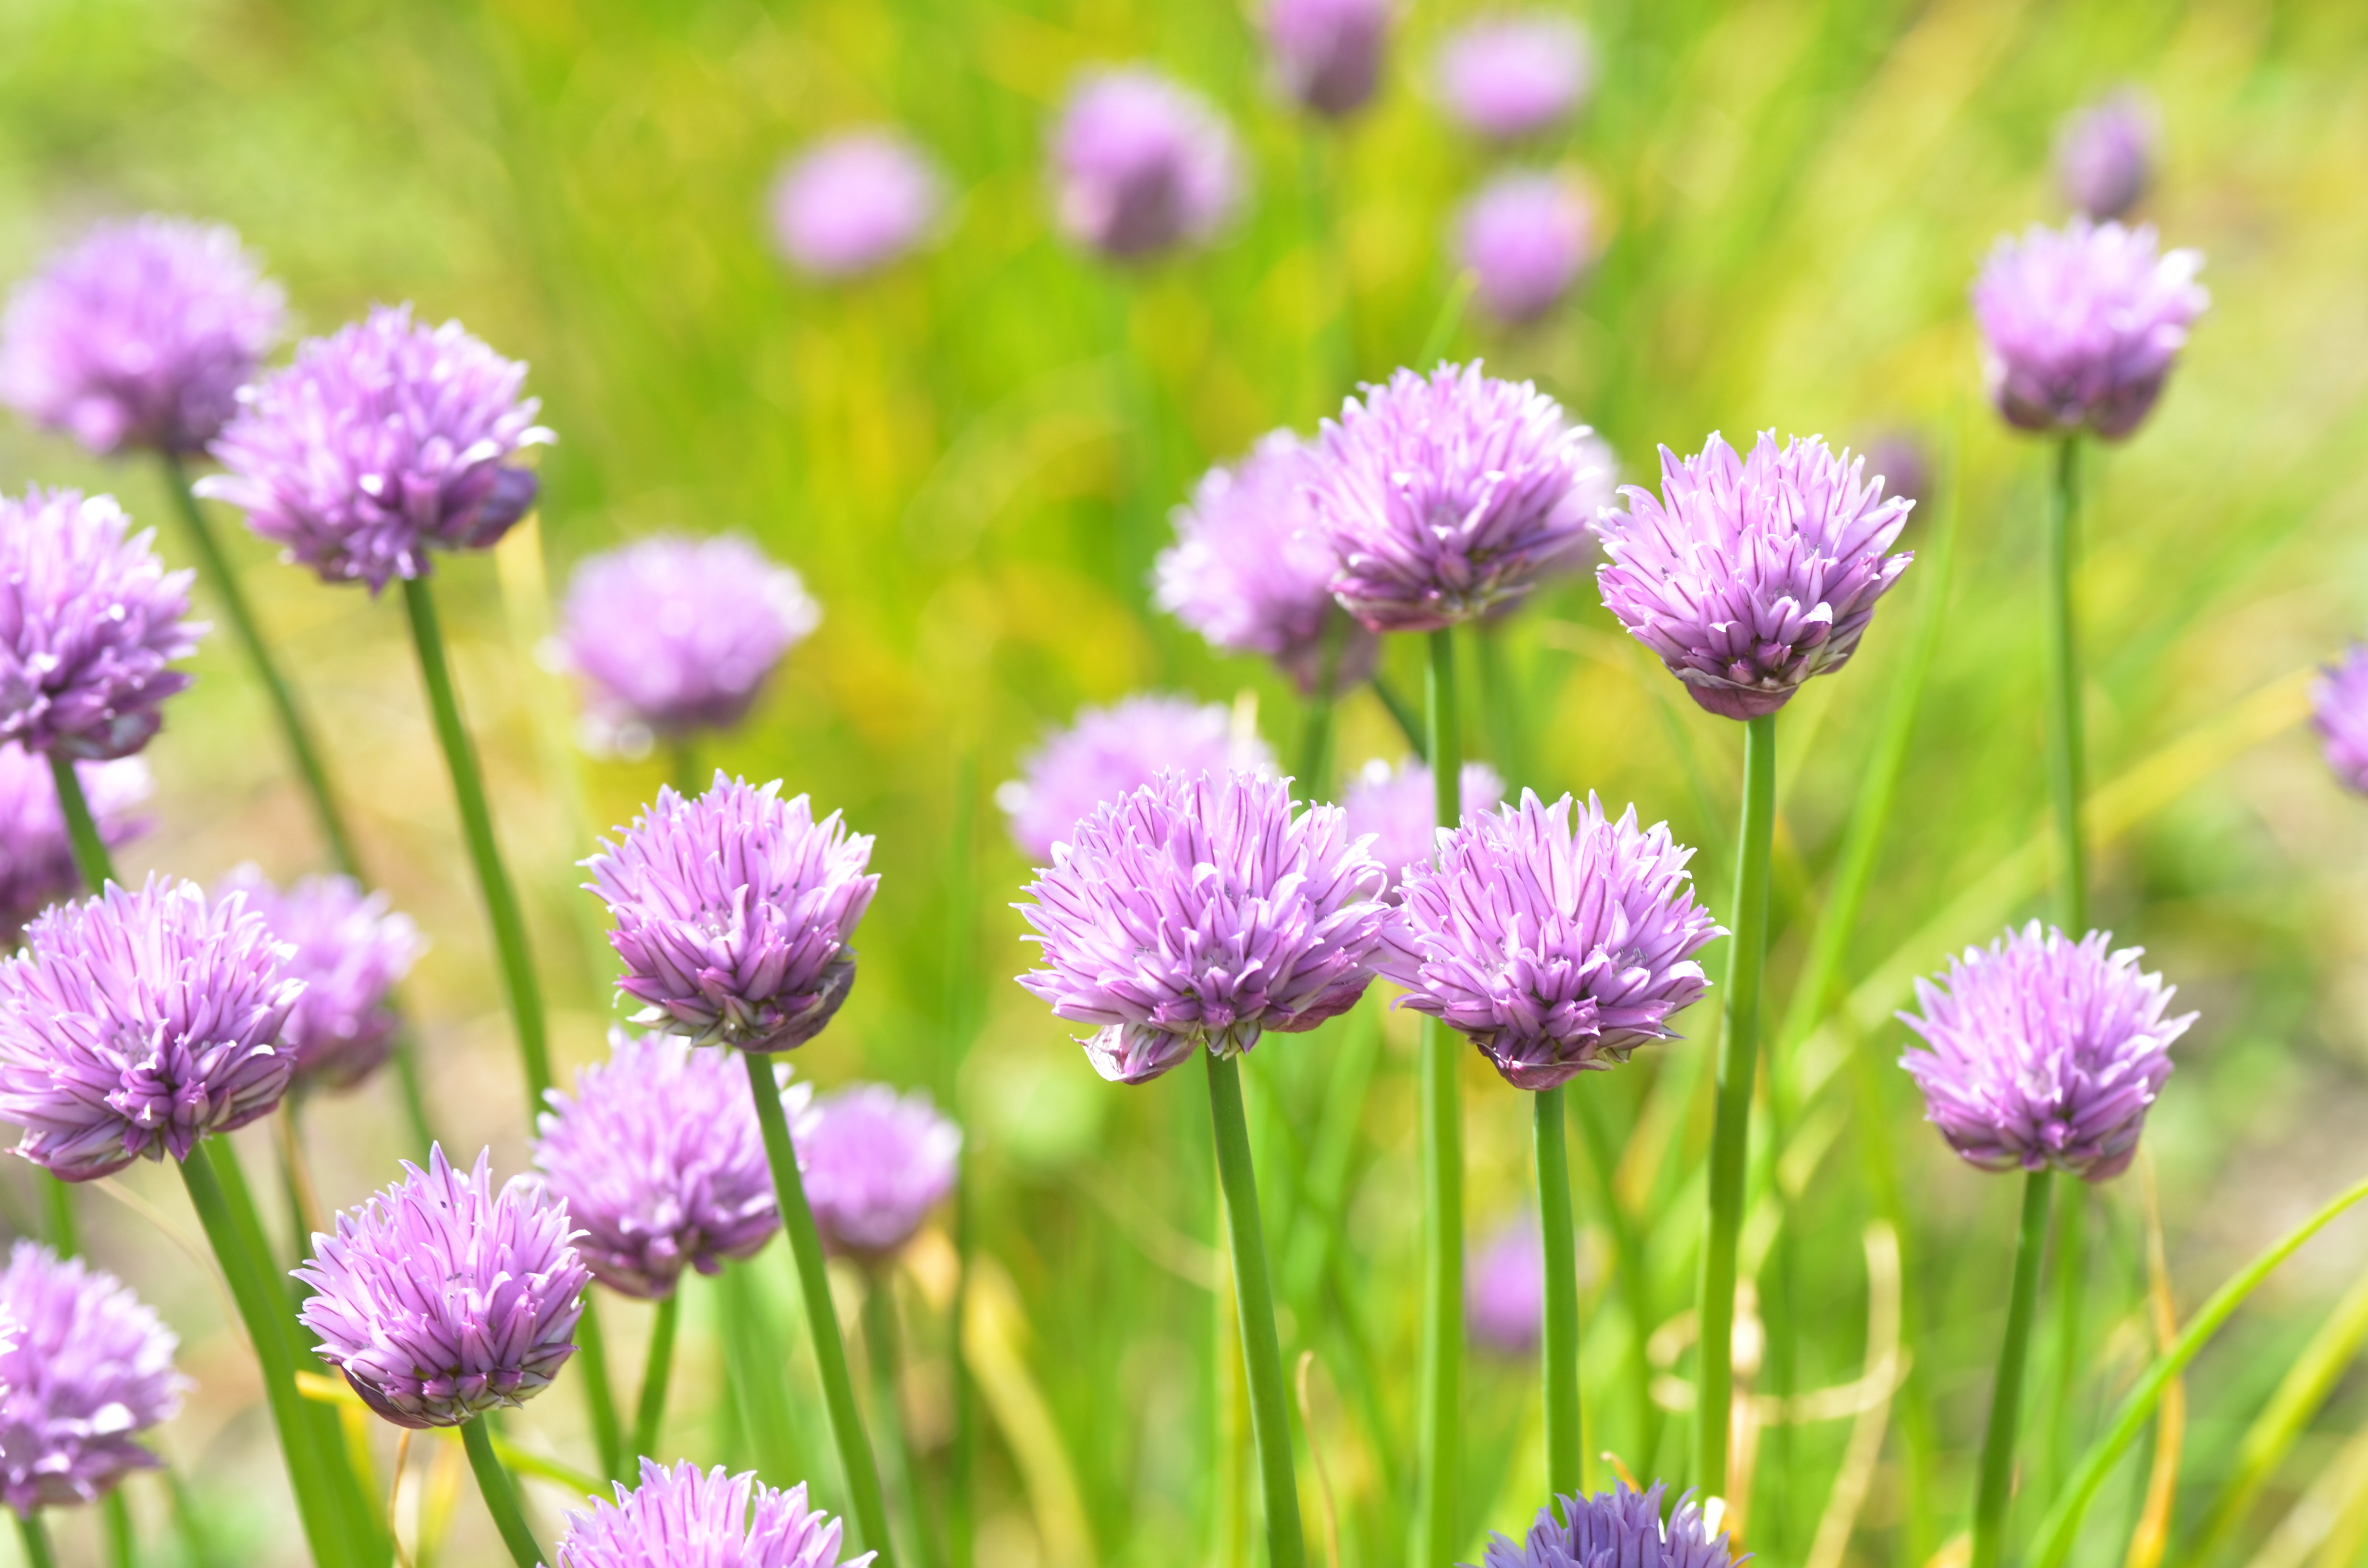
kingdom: Plantae
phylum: Tracheophyta
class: Liliopsida
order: Asparagales
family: Amaryllidaceae
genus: Allium
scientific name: Allium schoenoprasum
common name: Chives
